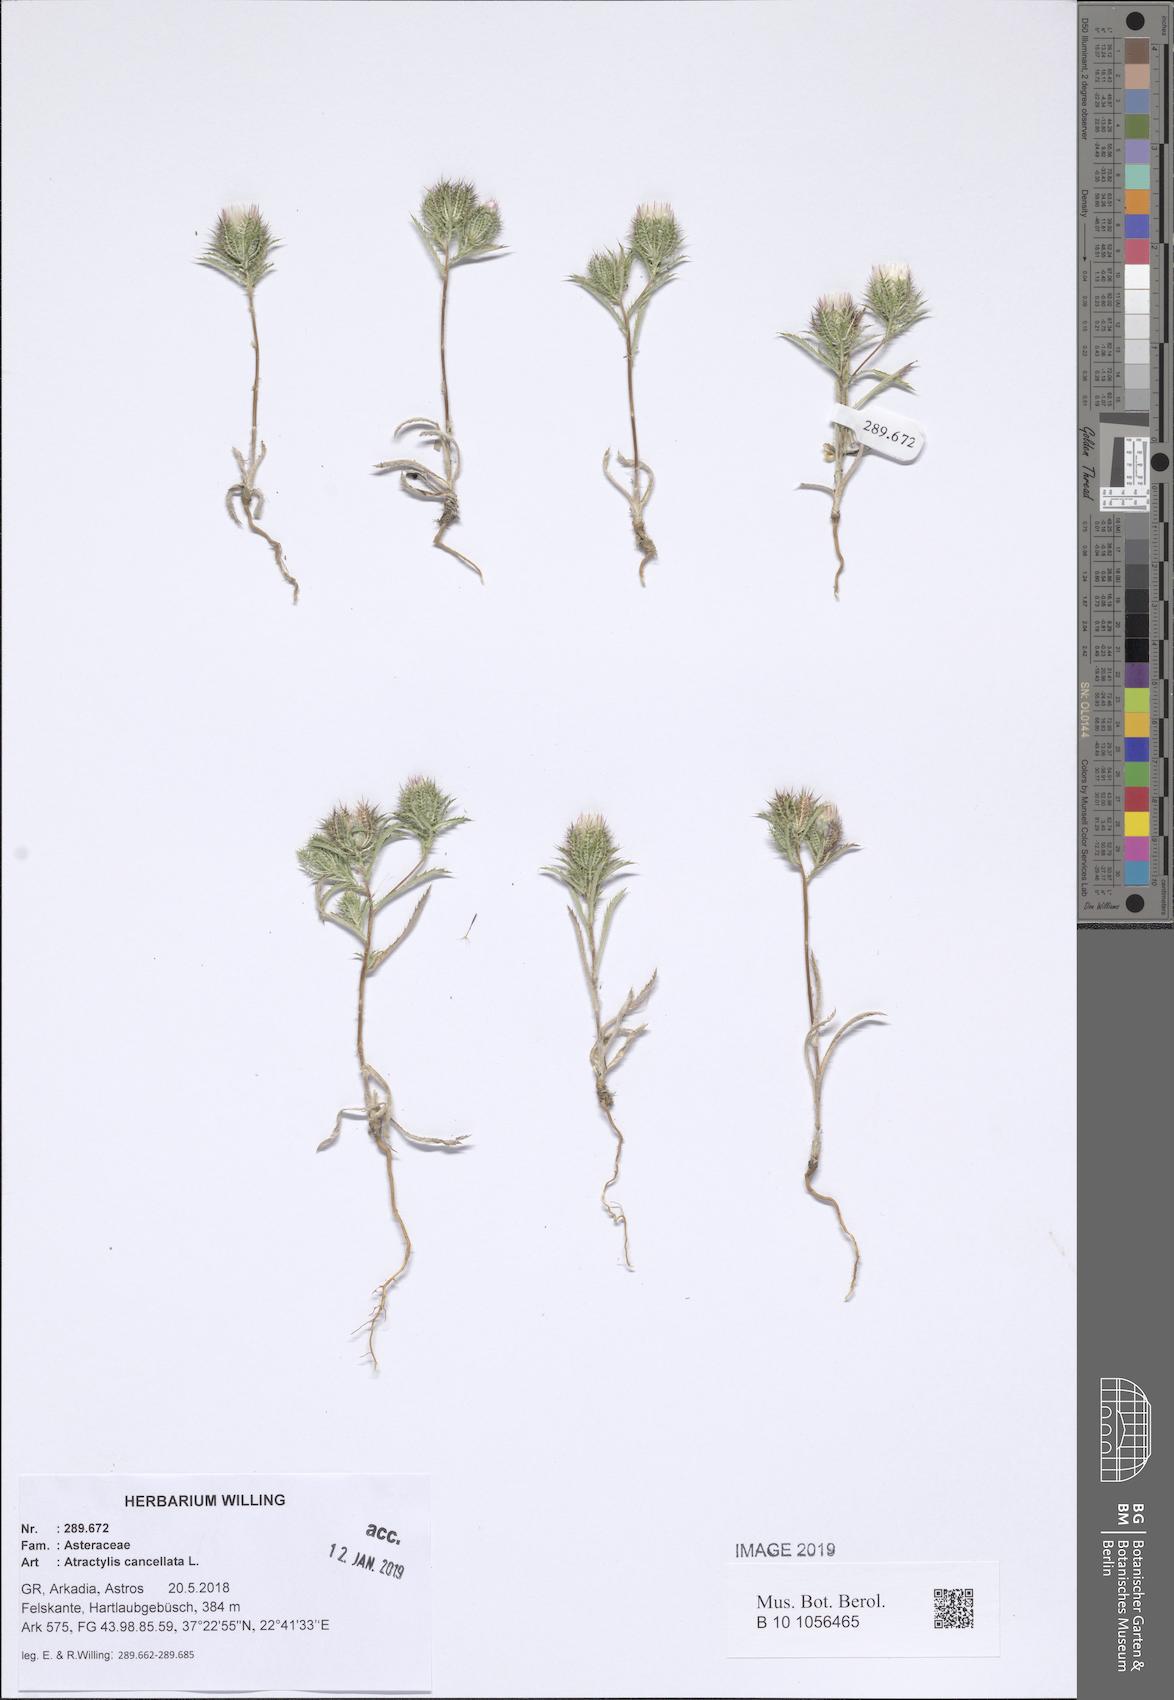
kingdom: Plantae
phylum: Tracheophyta
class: Magnoliopsida
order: Asterales
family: Asteraceae
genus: Atractylis
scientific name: Atractylis cancellata
